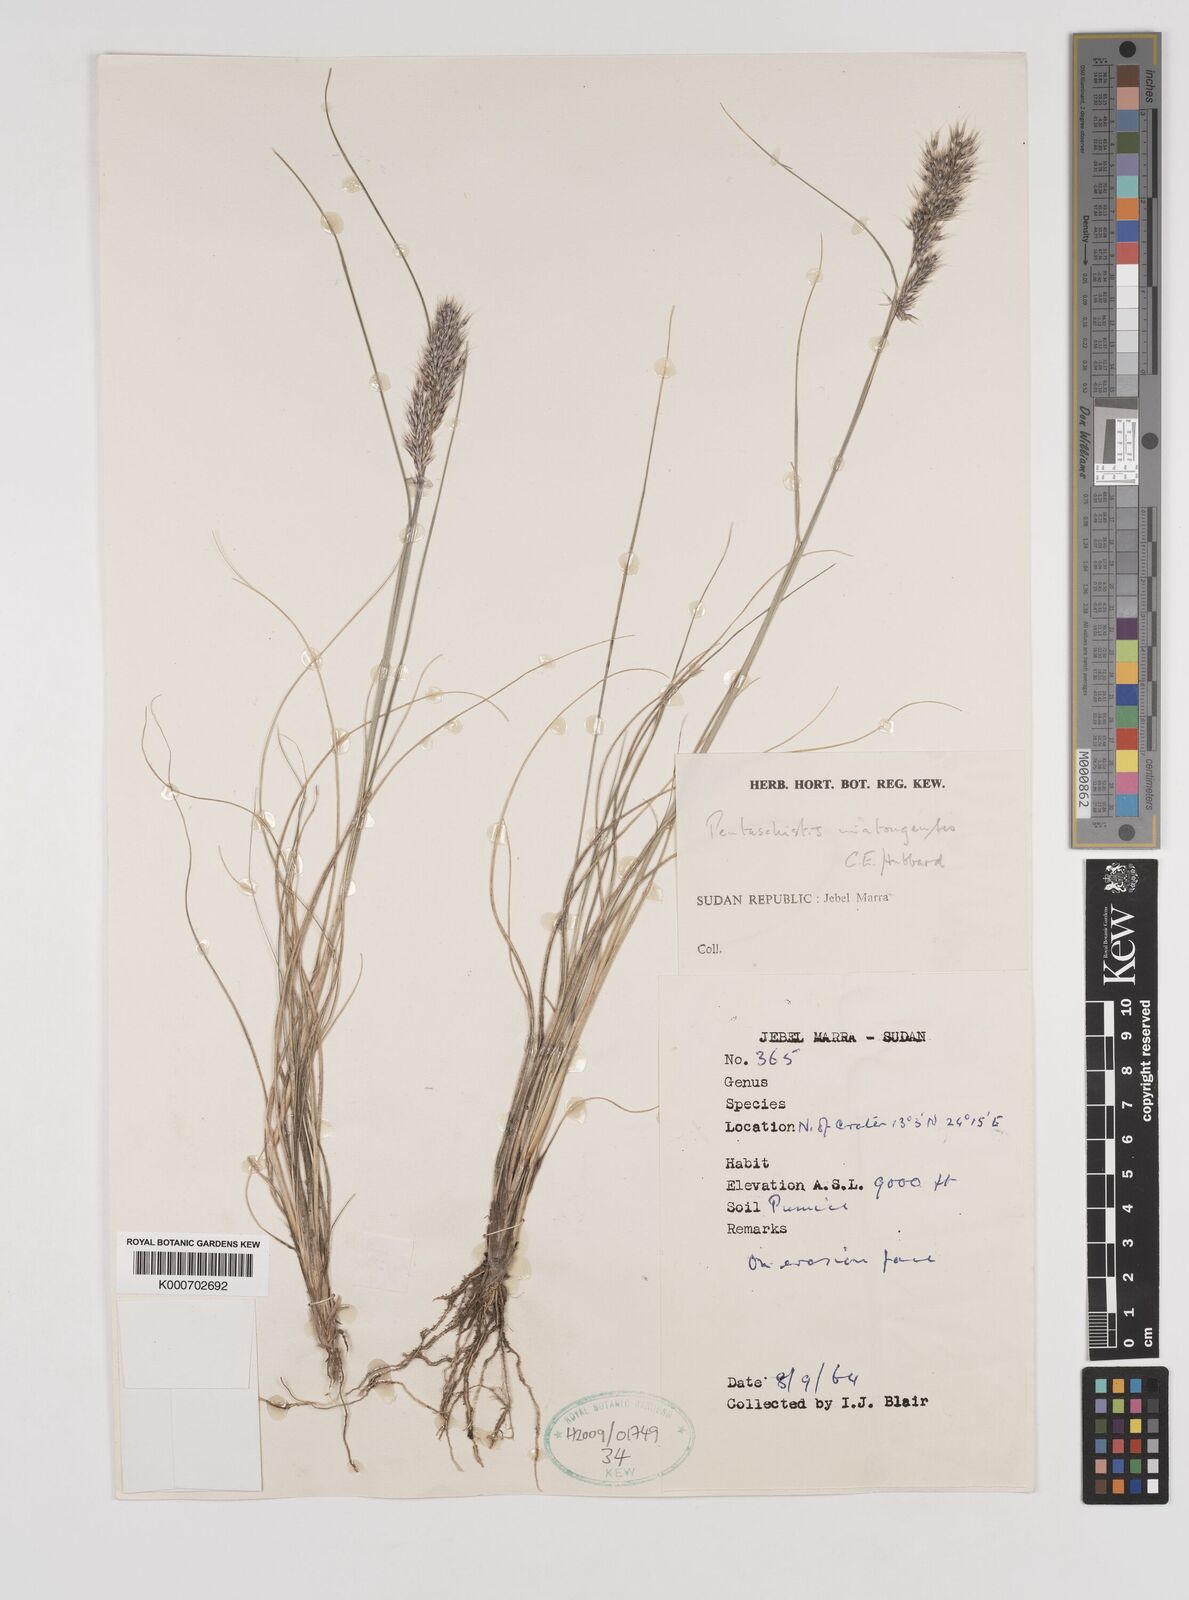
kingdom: Plantae
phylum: Tracheophyta
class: Liliopsida
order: Poales
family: Poaceae
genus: Pentameris
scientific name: Pentameris pictigluma
